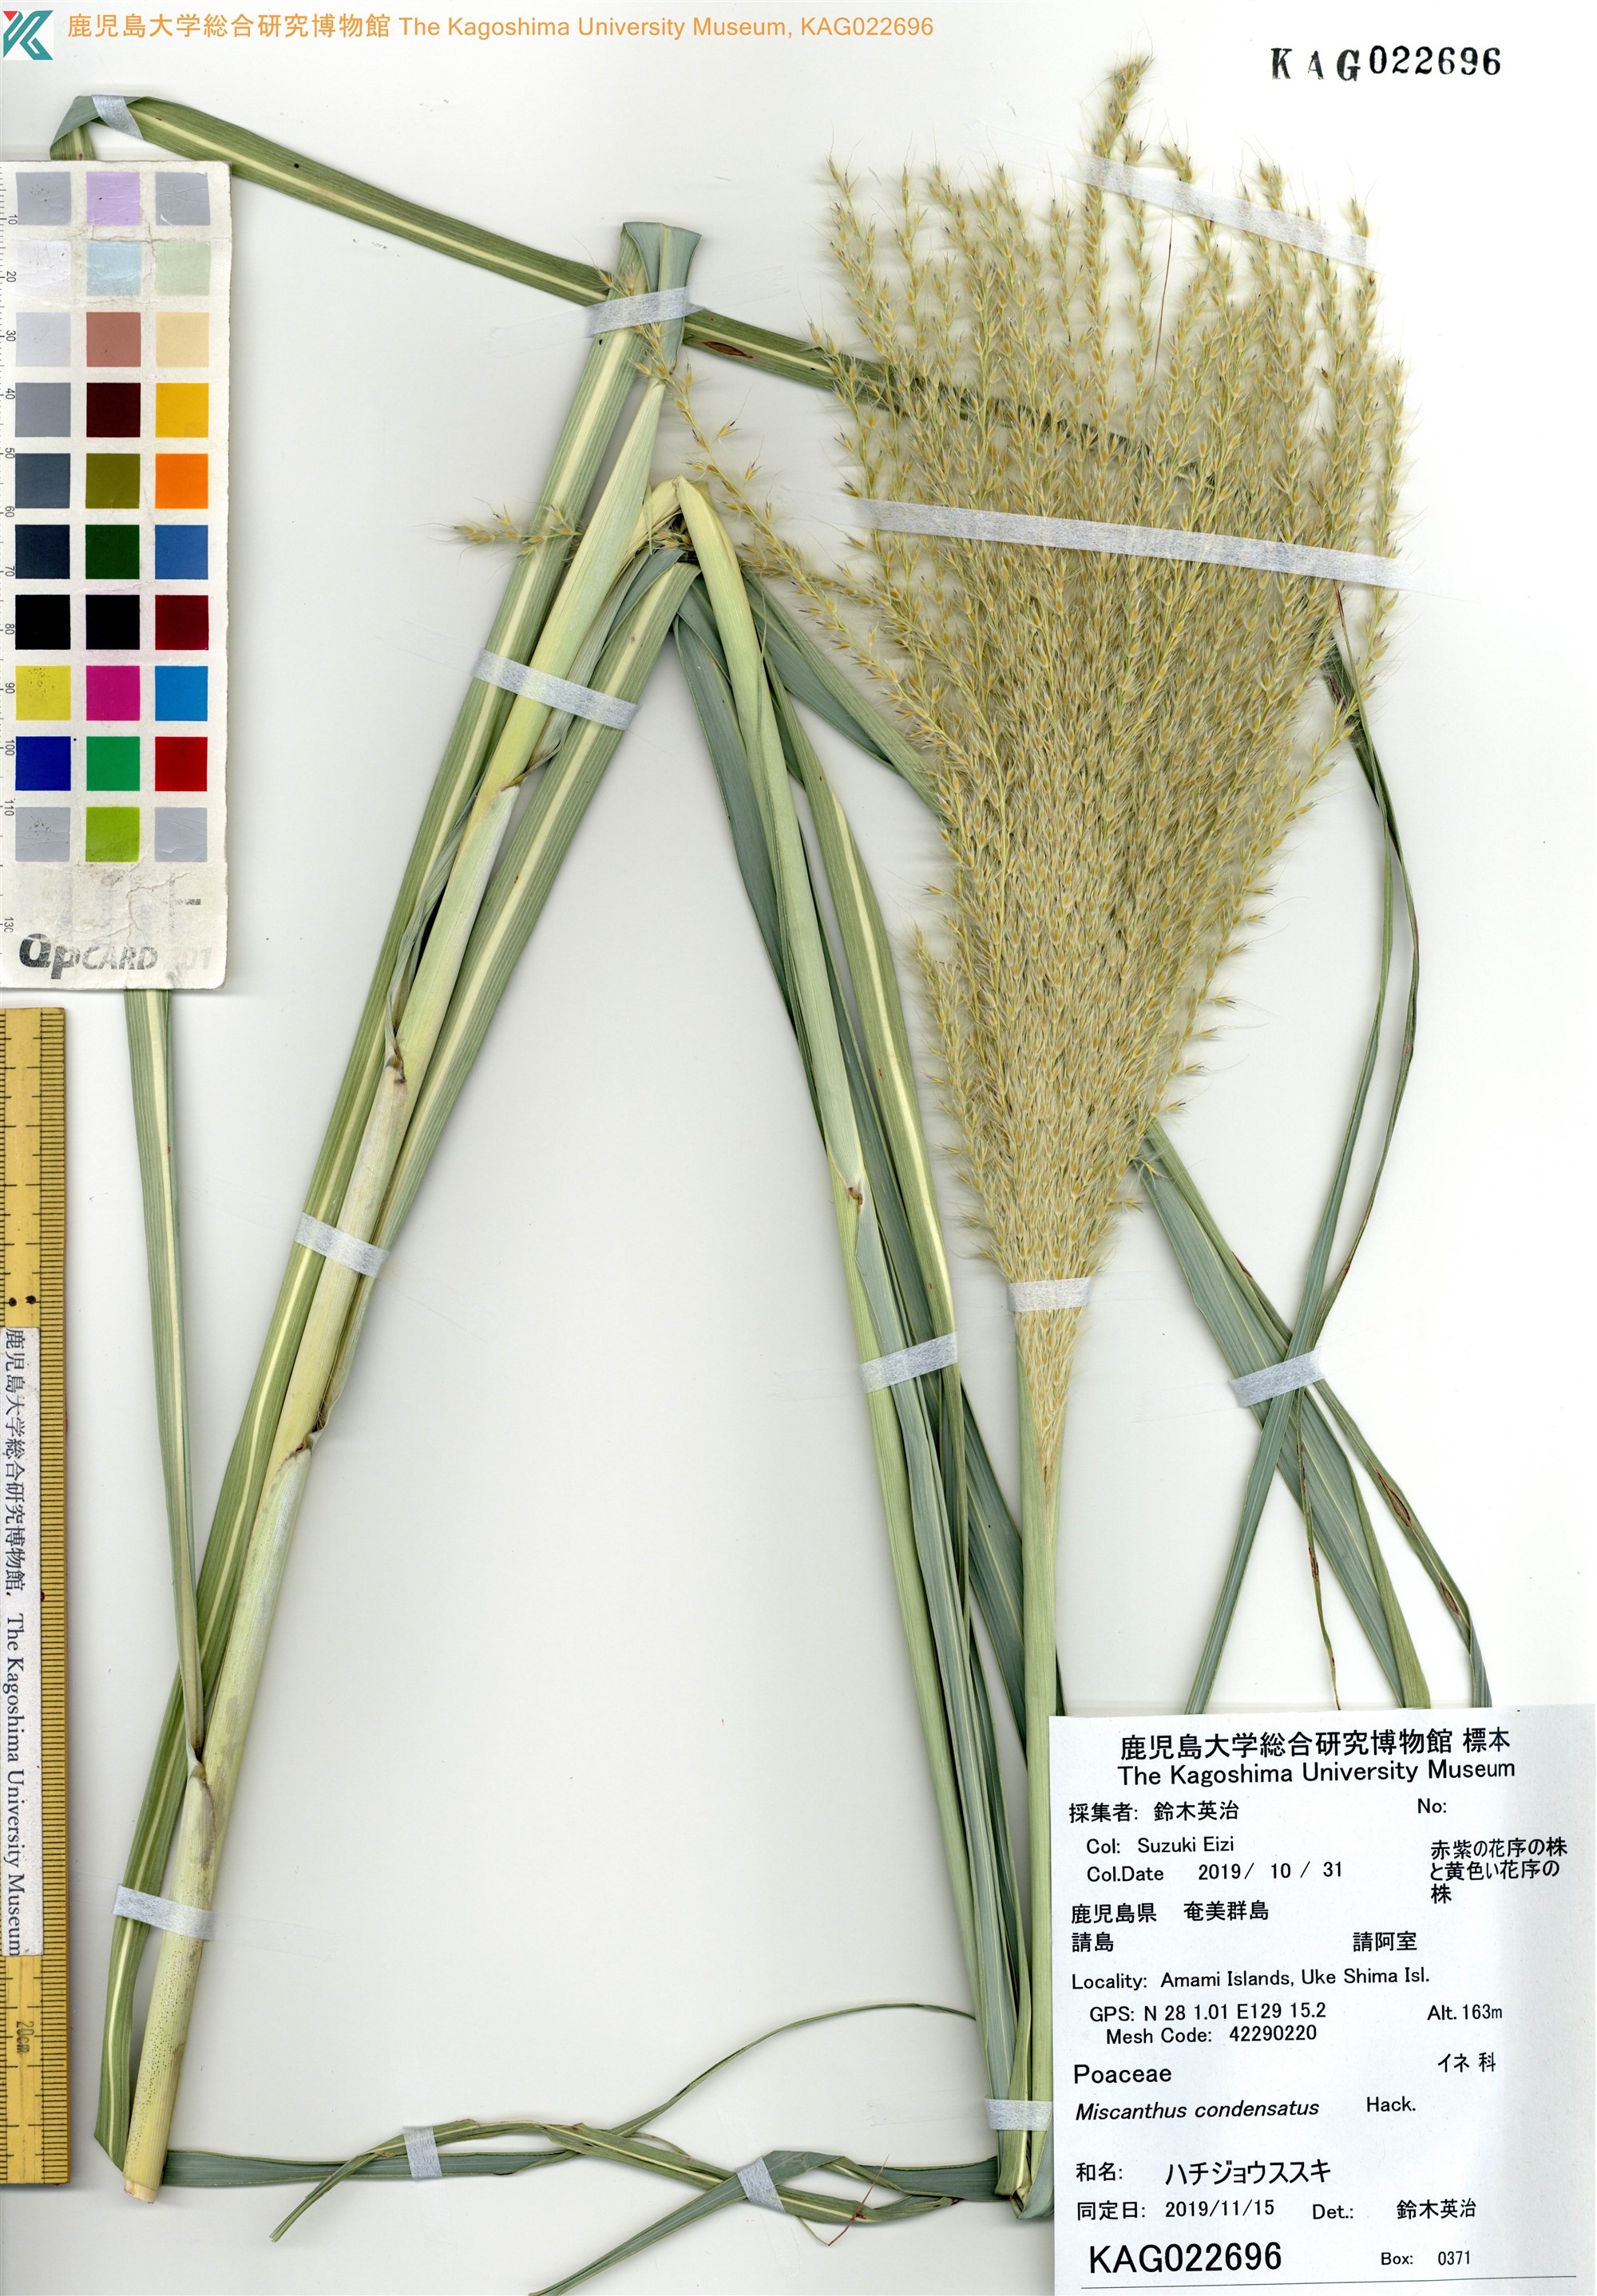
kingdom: Plantae
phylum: Tracheophyta
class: Liliopsida
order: Poales
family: Poaceae
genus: Miscanthus
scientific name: Miscanthus sinensis
